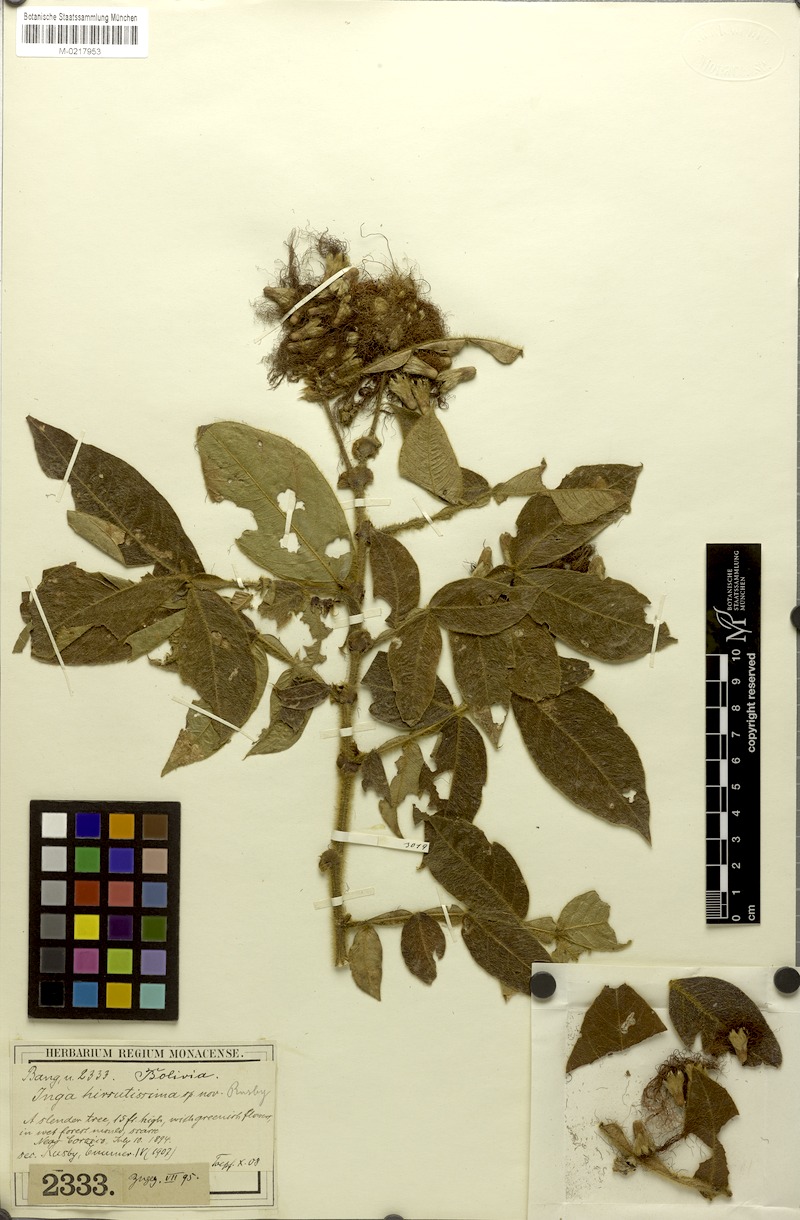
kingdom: Plantae
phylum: Tracheophyta
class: Magnoliopsida
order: Fabales
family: Fabaceae
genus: Inga
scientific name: Inga setosa
